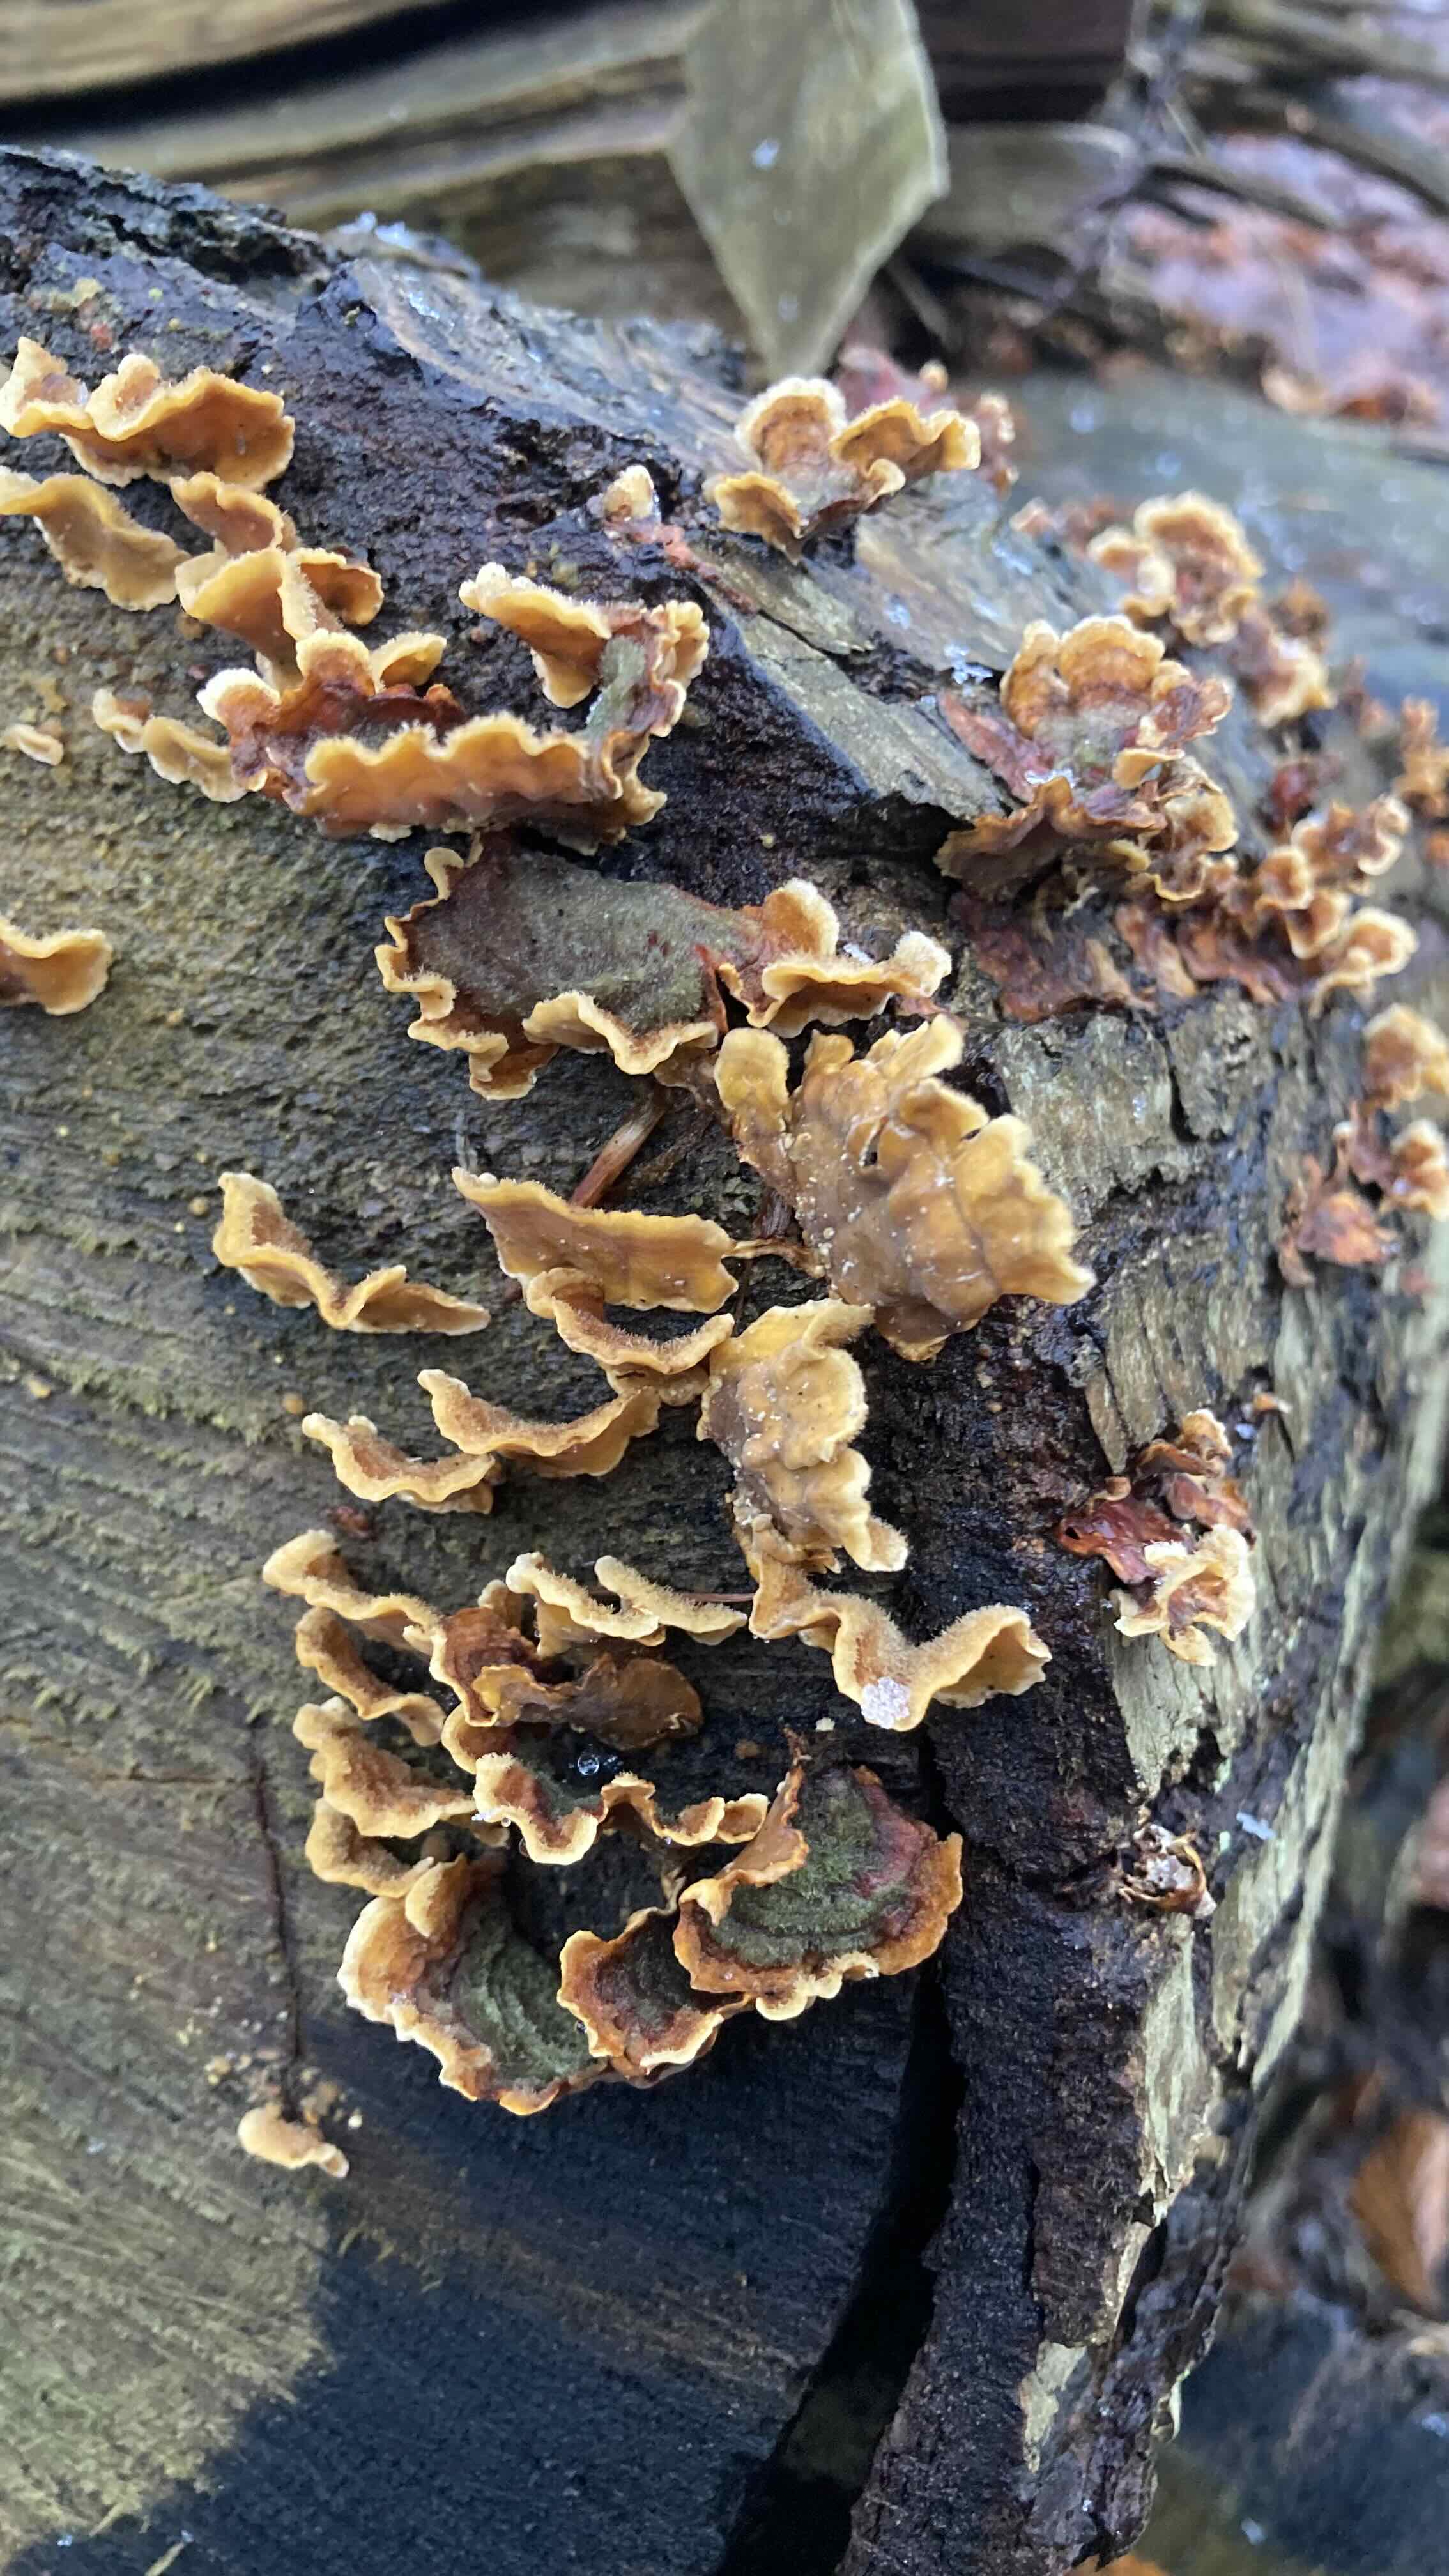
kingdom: Fungi
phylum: Basidiomycota
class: Agaricomycetes
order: Russulales
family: Stereaceae
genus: Stereum
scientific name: Stereum hirsutum
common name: håret lædersvamp
